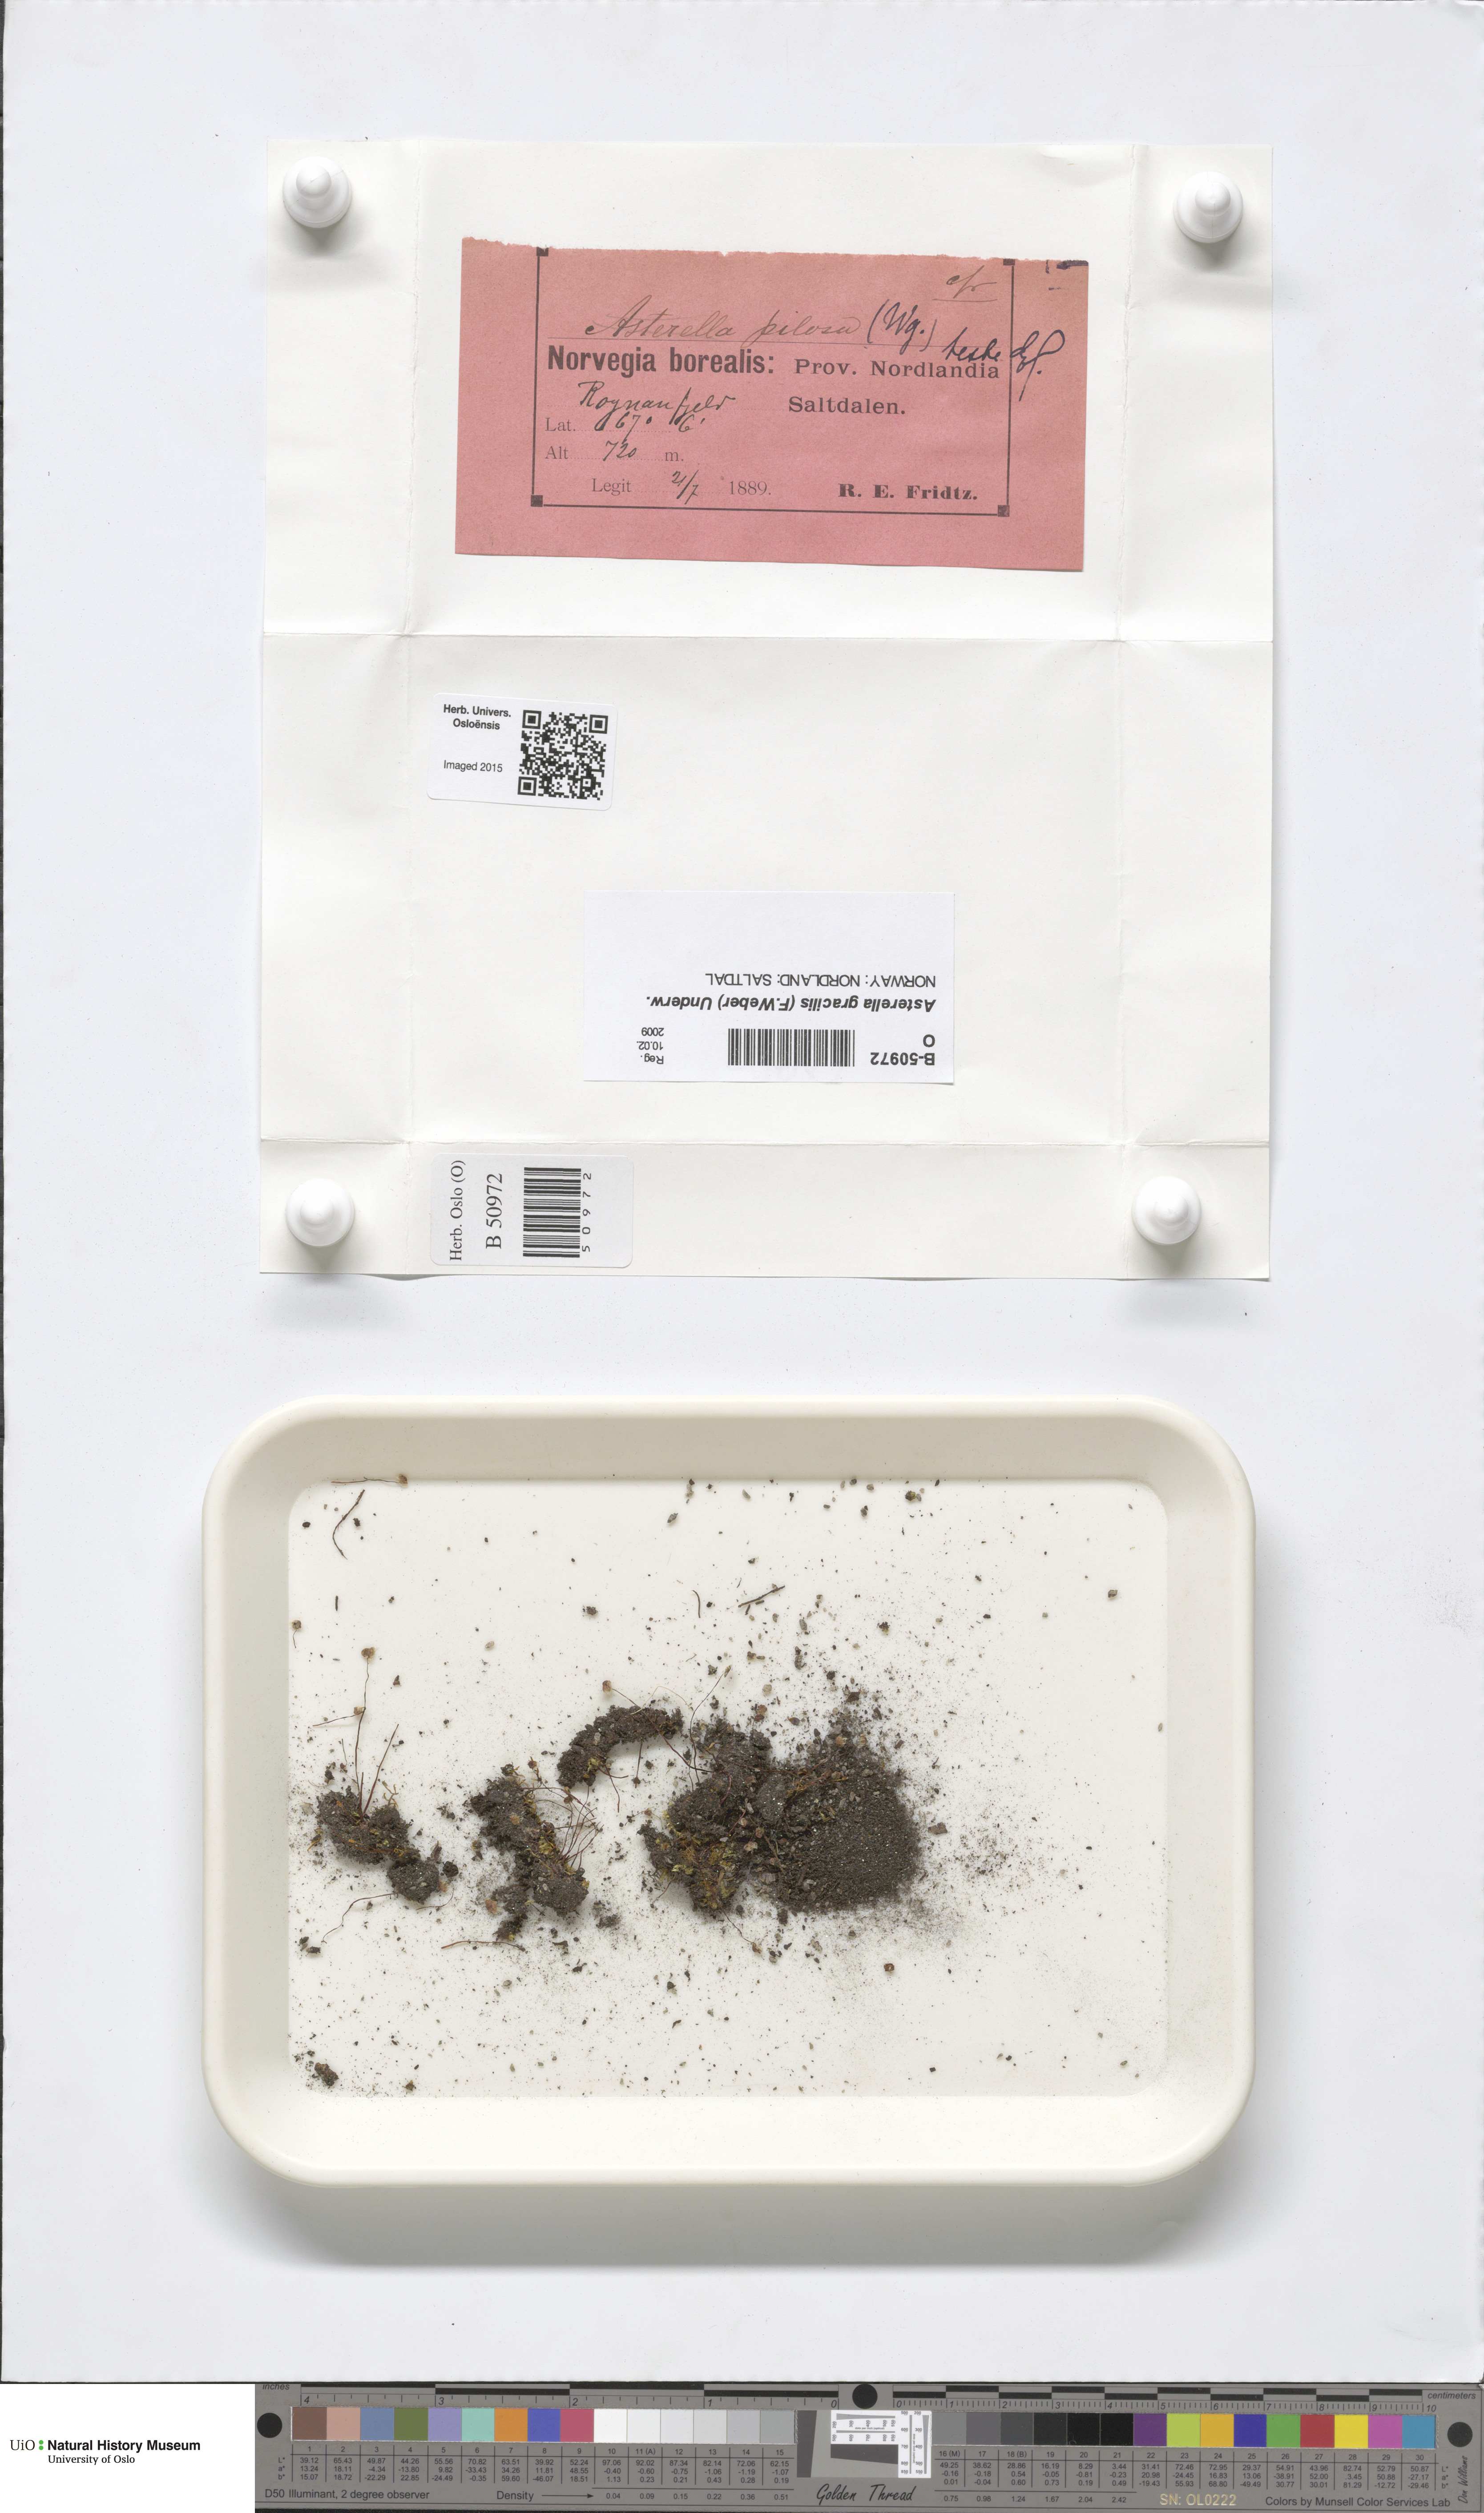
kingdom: Plantae
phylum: Marchantiophyta
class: Marchantiopsida
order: Marchantiales
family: Aytoniaceae
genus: Mannia
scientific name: Mannia gracilis
